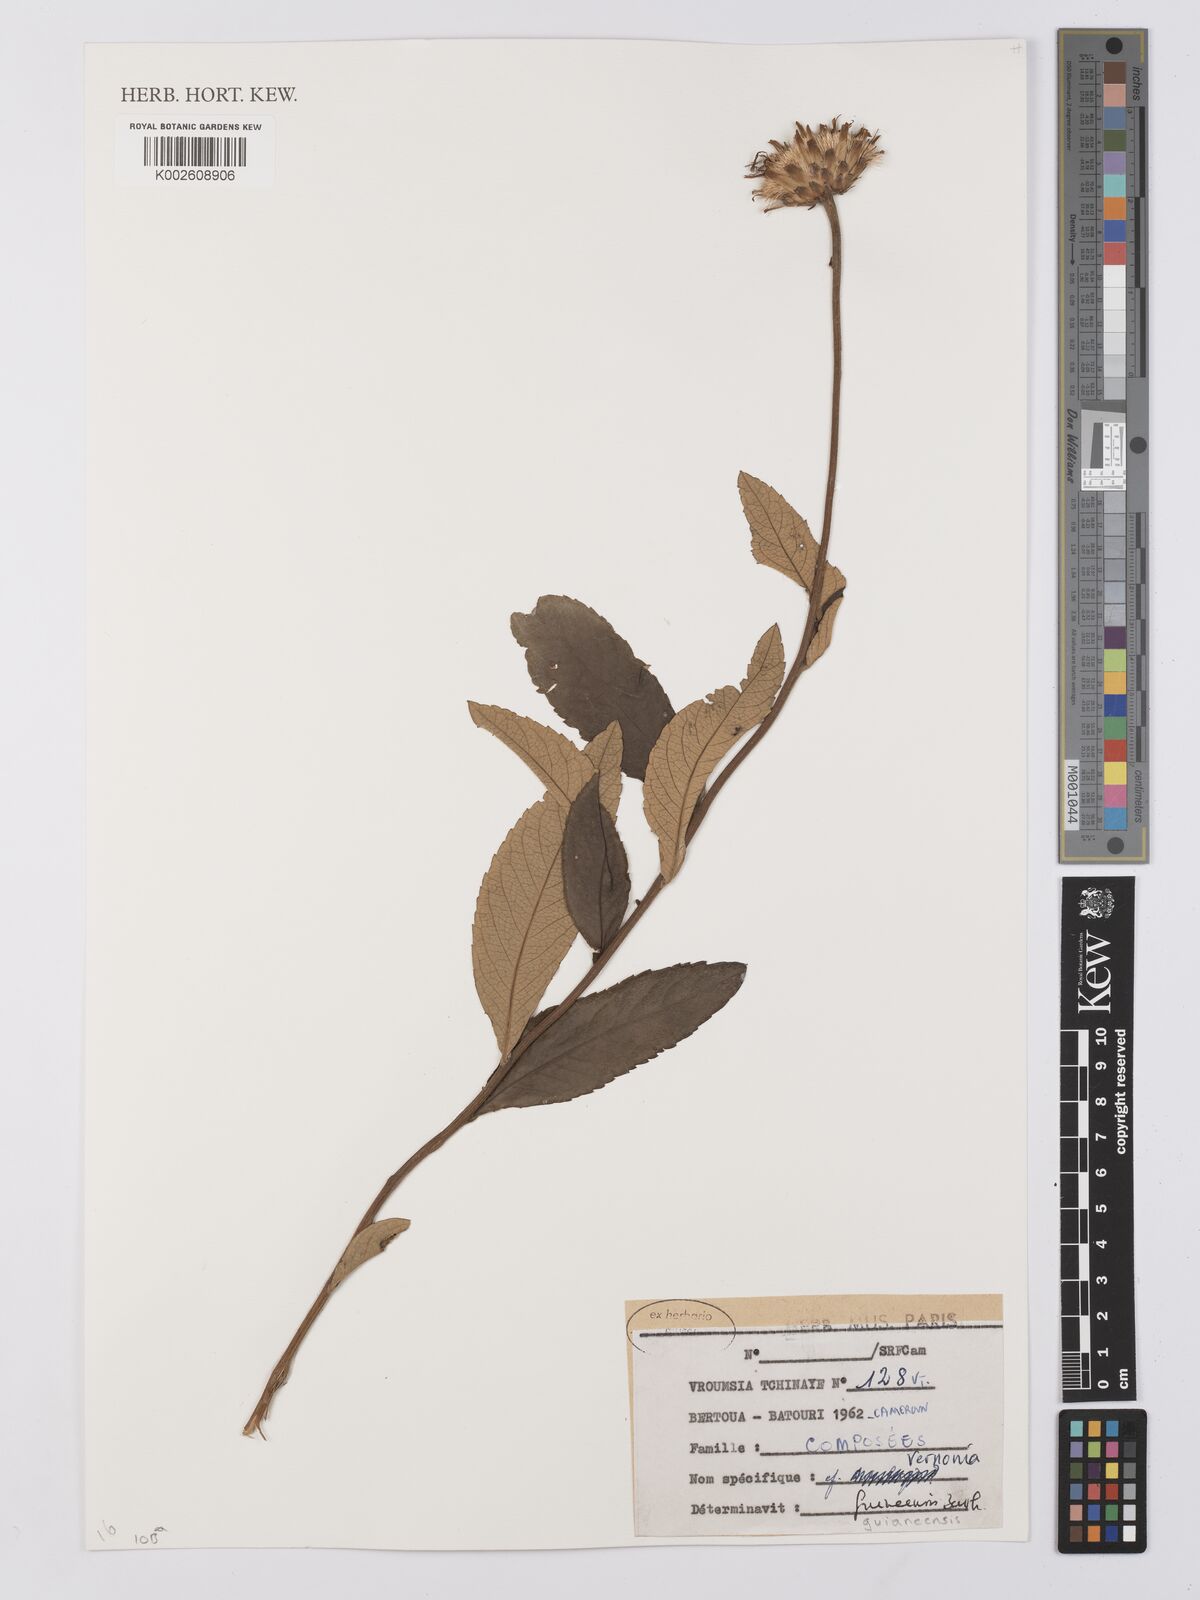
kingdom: Plantae
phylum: Tracheophyta
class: Magnoliopsida
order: Asterales
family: Asteraceae
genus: Baccharoides
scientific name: Baccharoides guineensis
